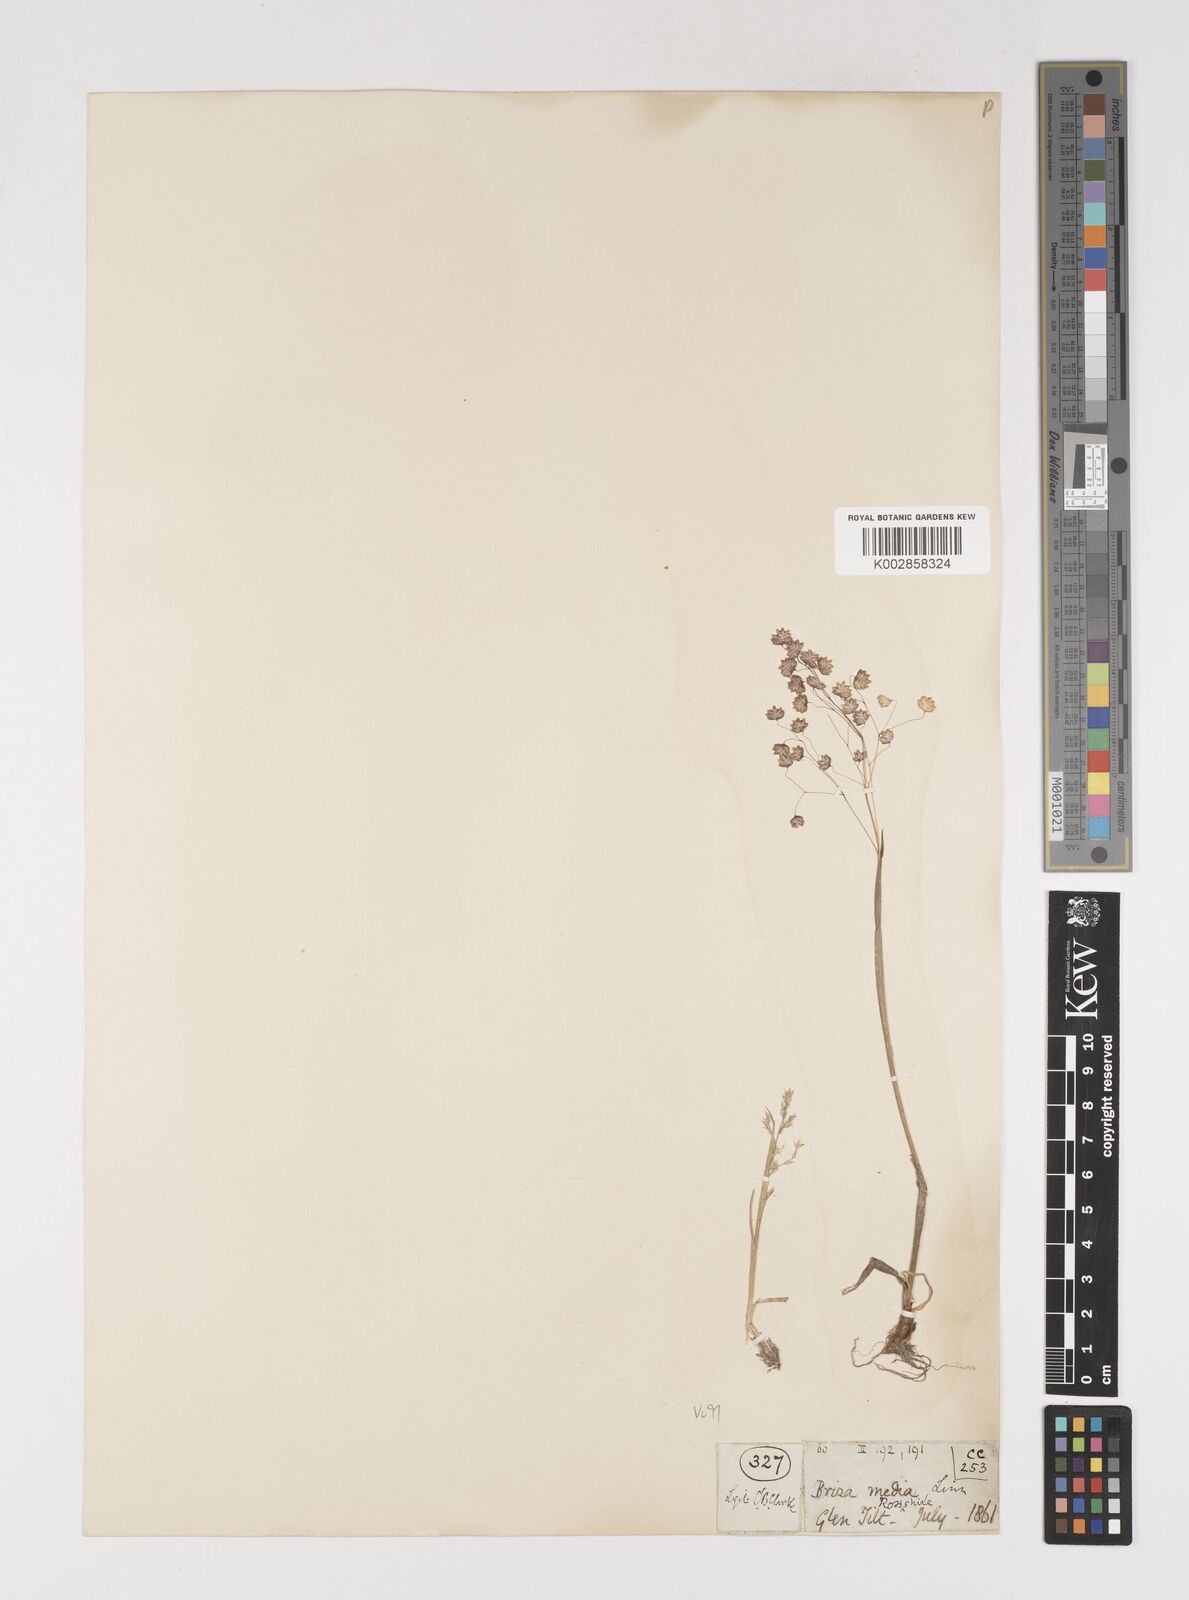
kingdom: Plantae
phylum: Tracheophyta
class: Liliopsida
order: Poales
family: Poaceae
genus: Briza
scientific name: Briza media
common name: Quaking grass
